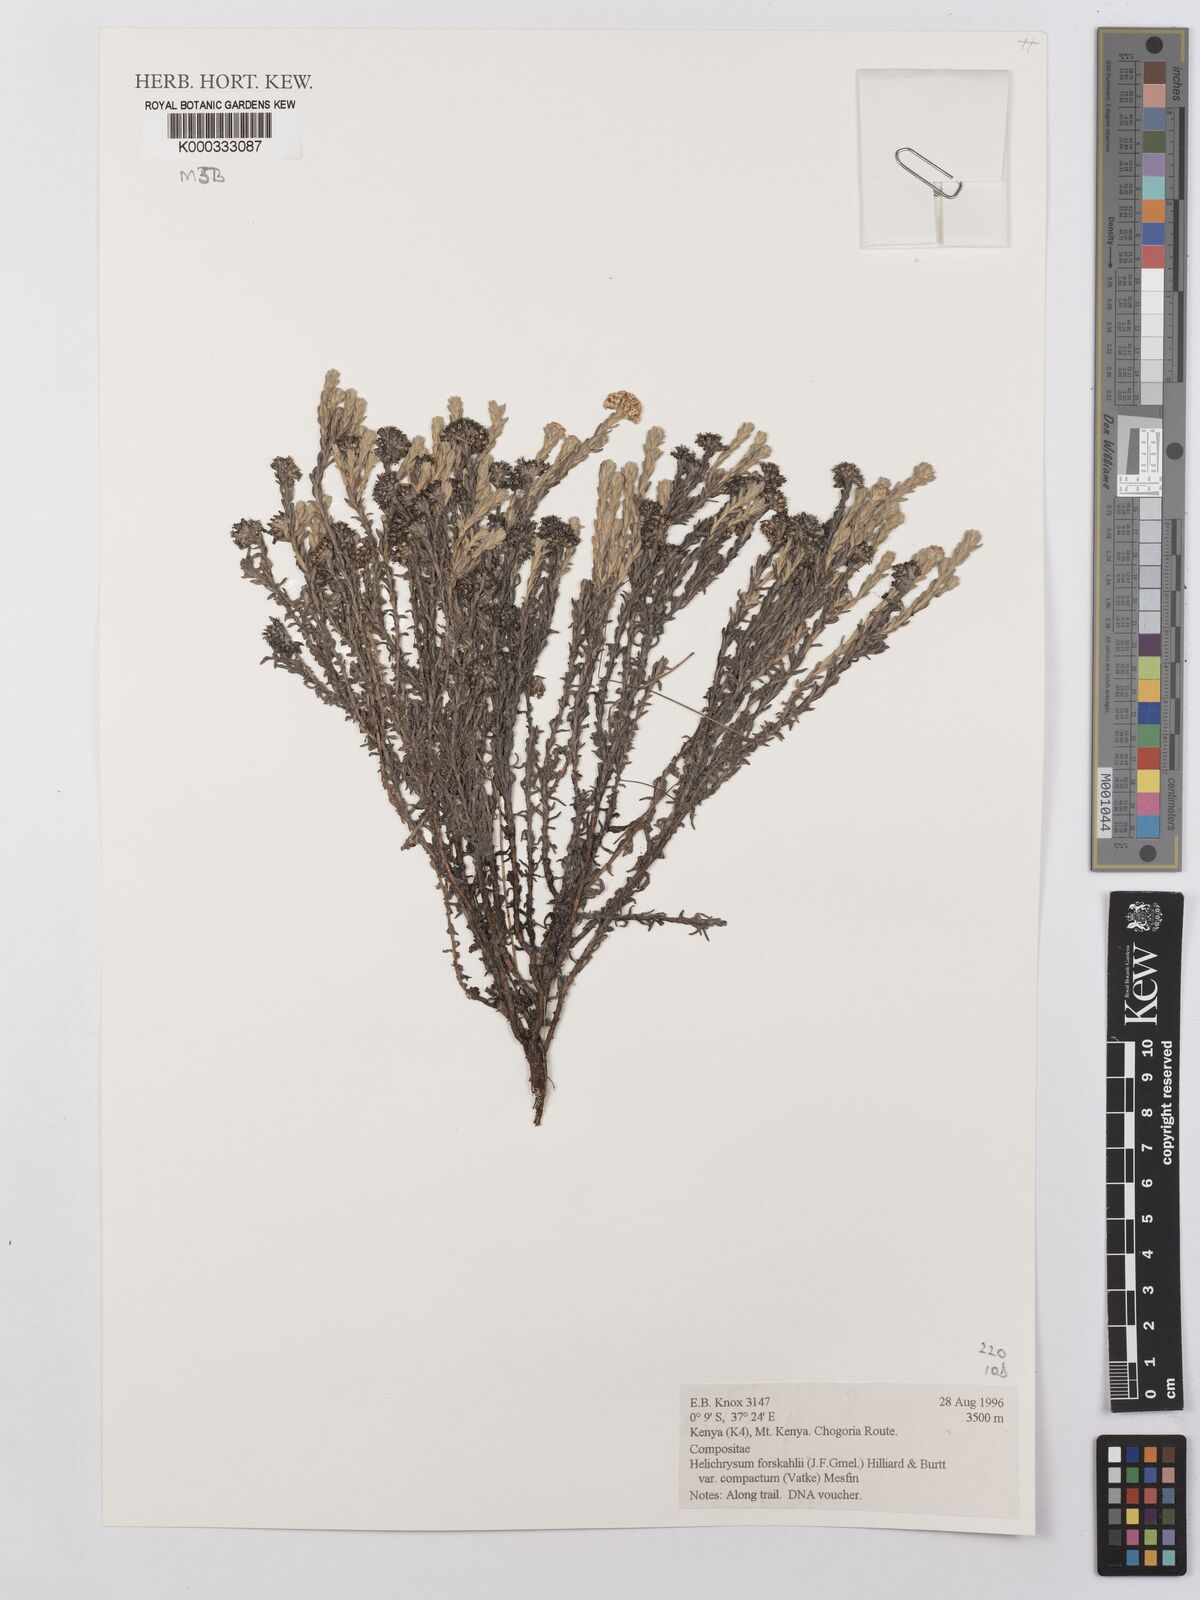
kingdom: Plantae
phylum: Tracheophyta
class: Magnoliopsida
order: Asterales
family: Asteraceae
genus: Helichrysum
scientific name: Helichrysum forskahlii
